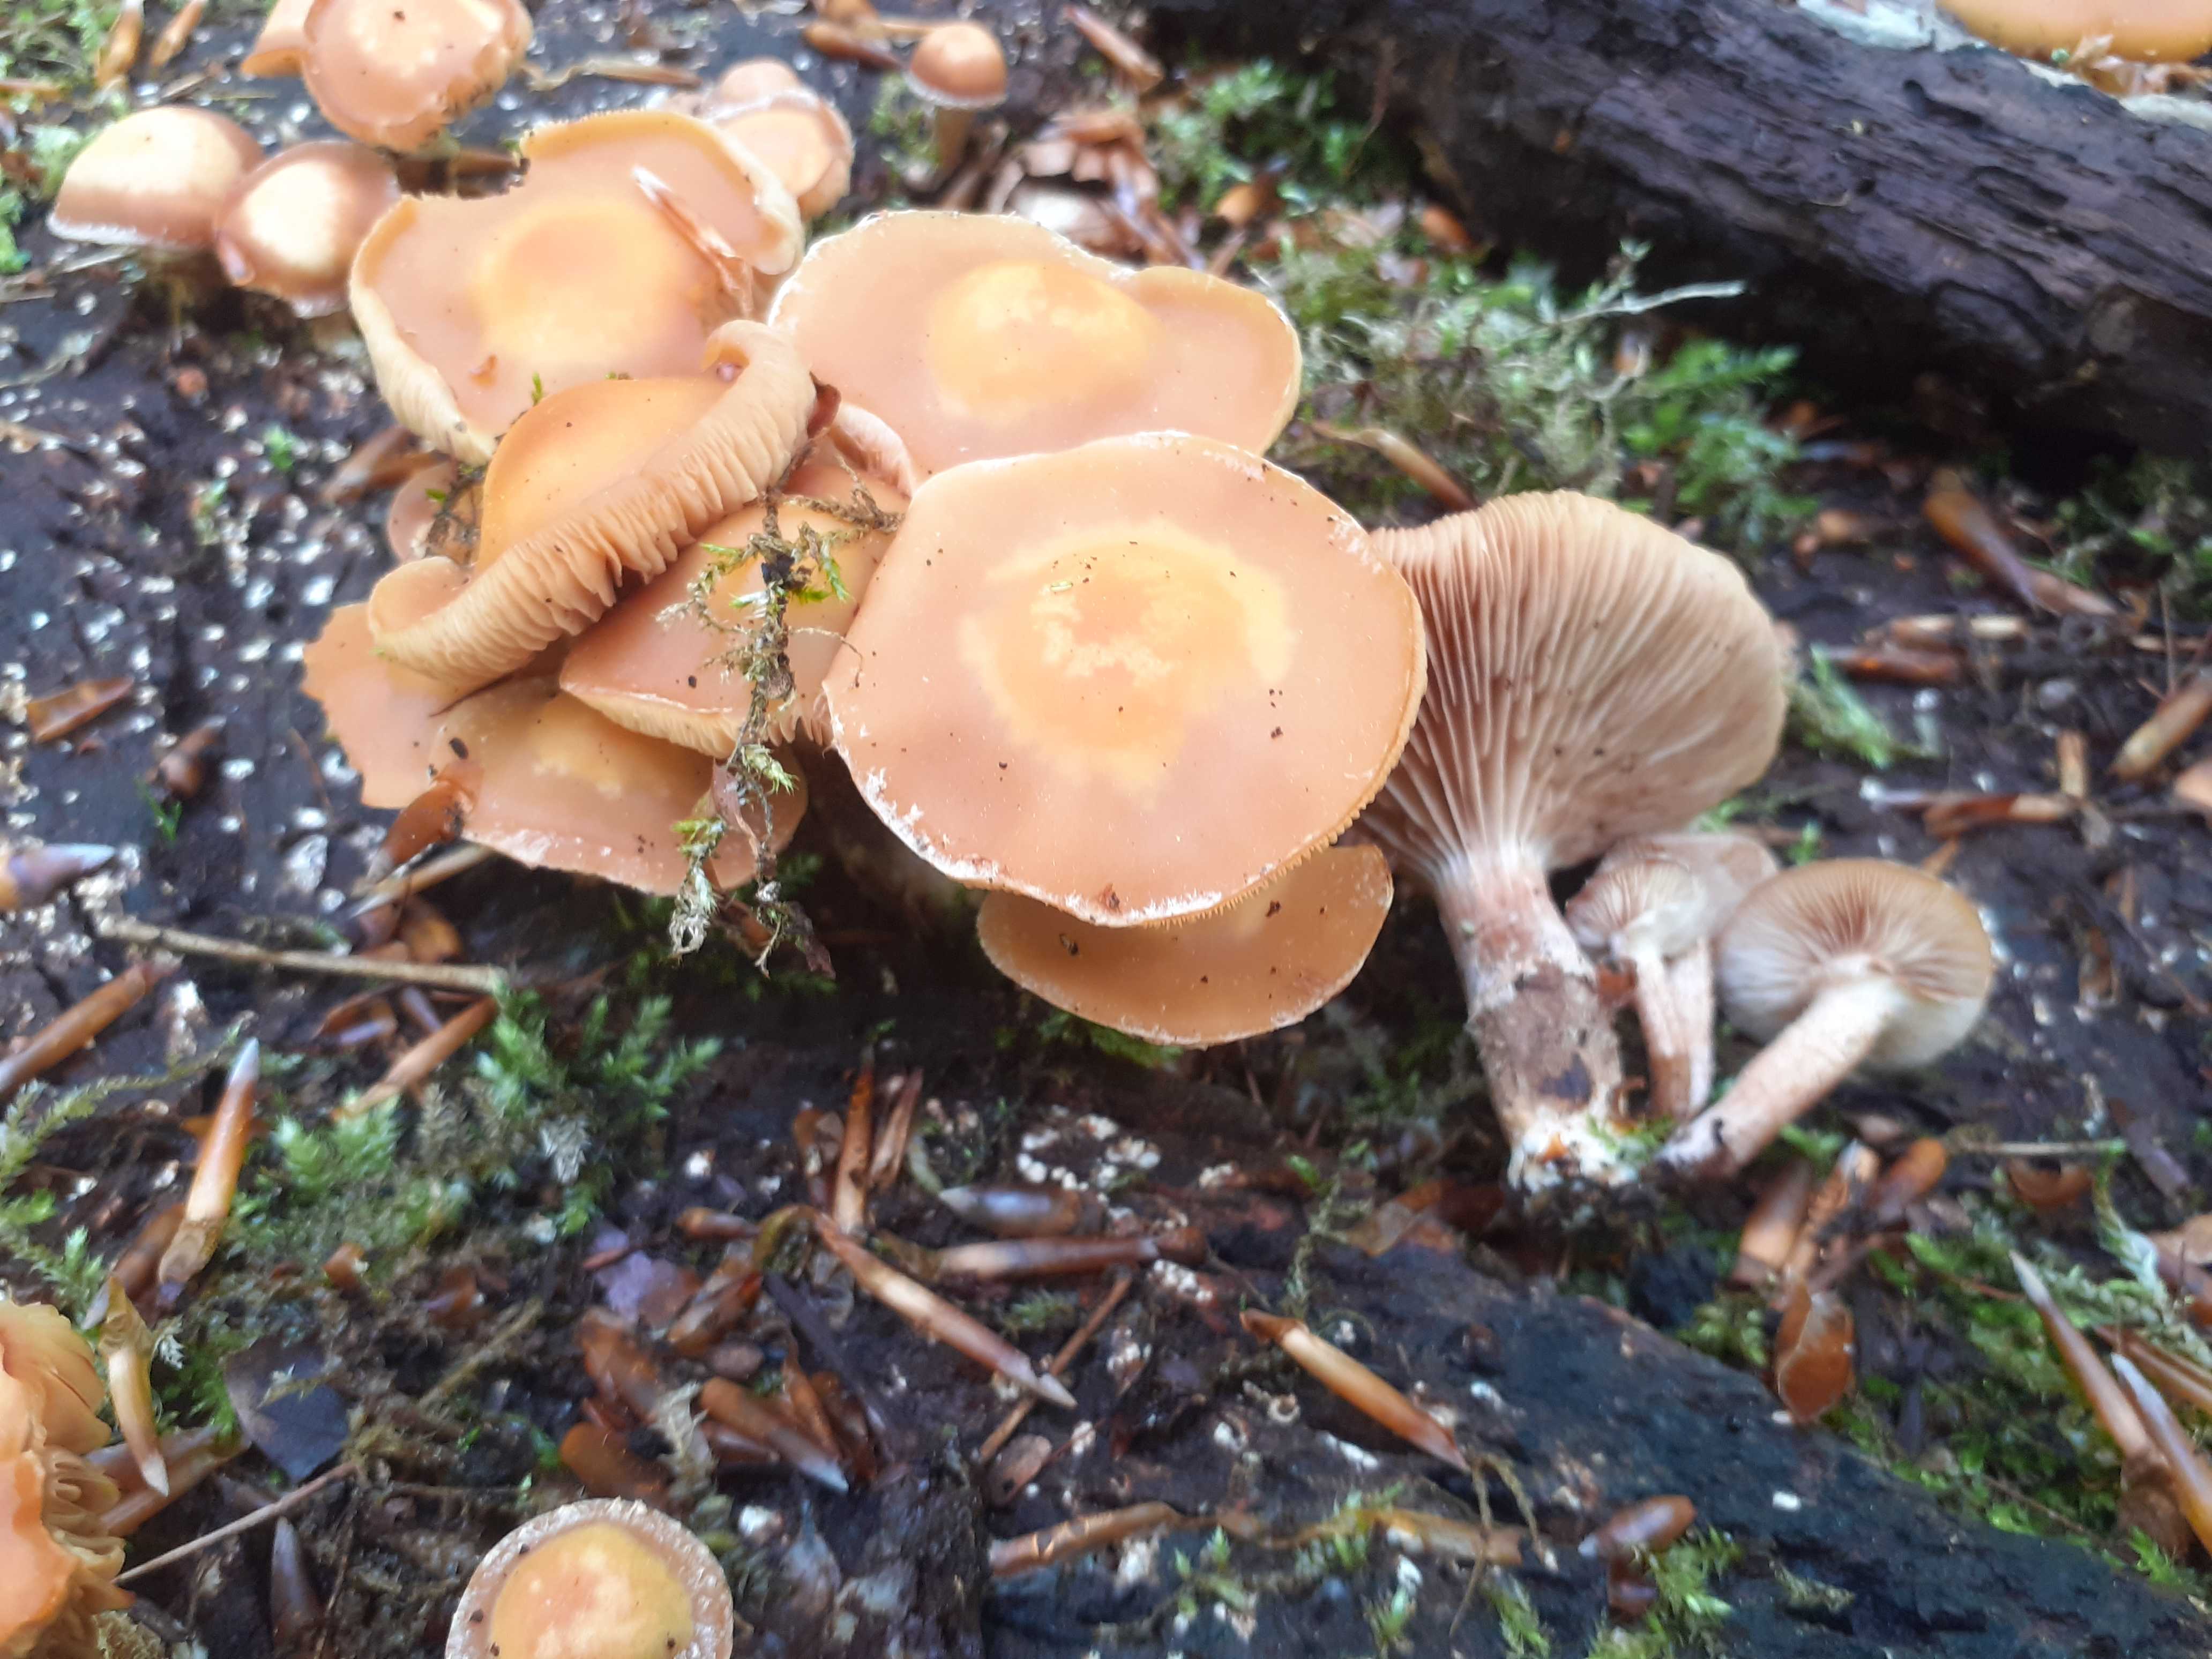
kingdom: Fungi
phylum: Basidiomycota
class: Agaricomycetes
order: Agaricales
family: Strophariaceae
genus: Kuehneromyces
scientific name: Kuehneromyces mutabilis
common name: foranderlig skælhat
